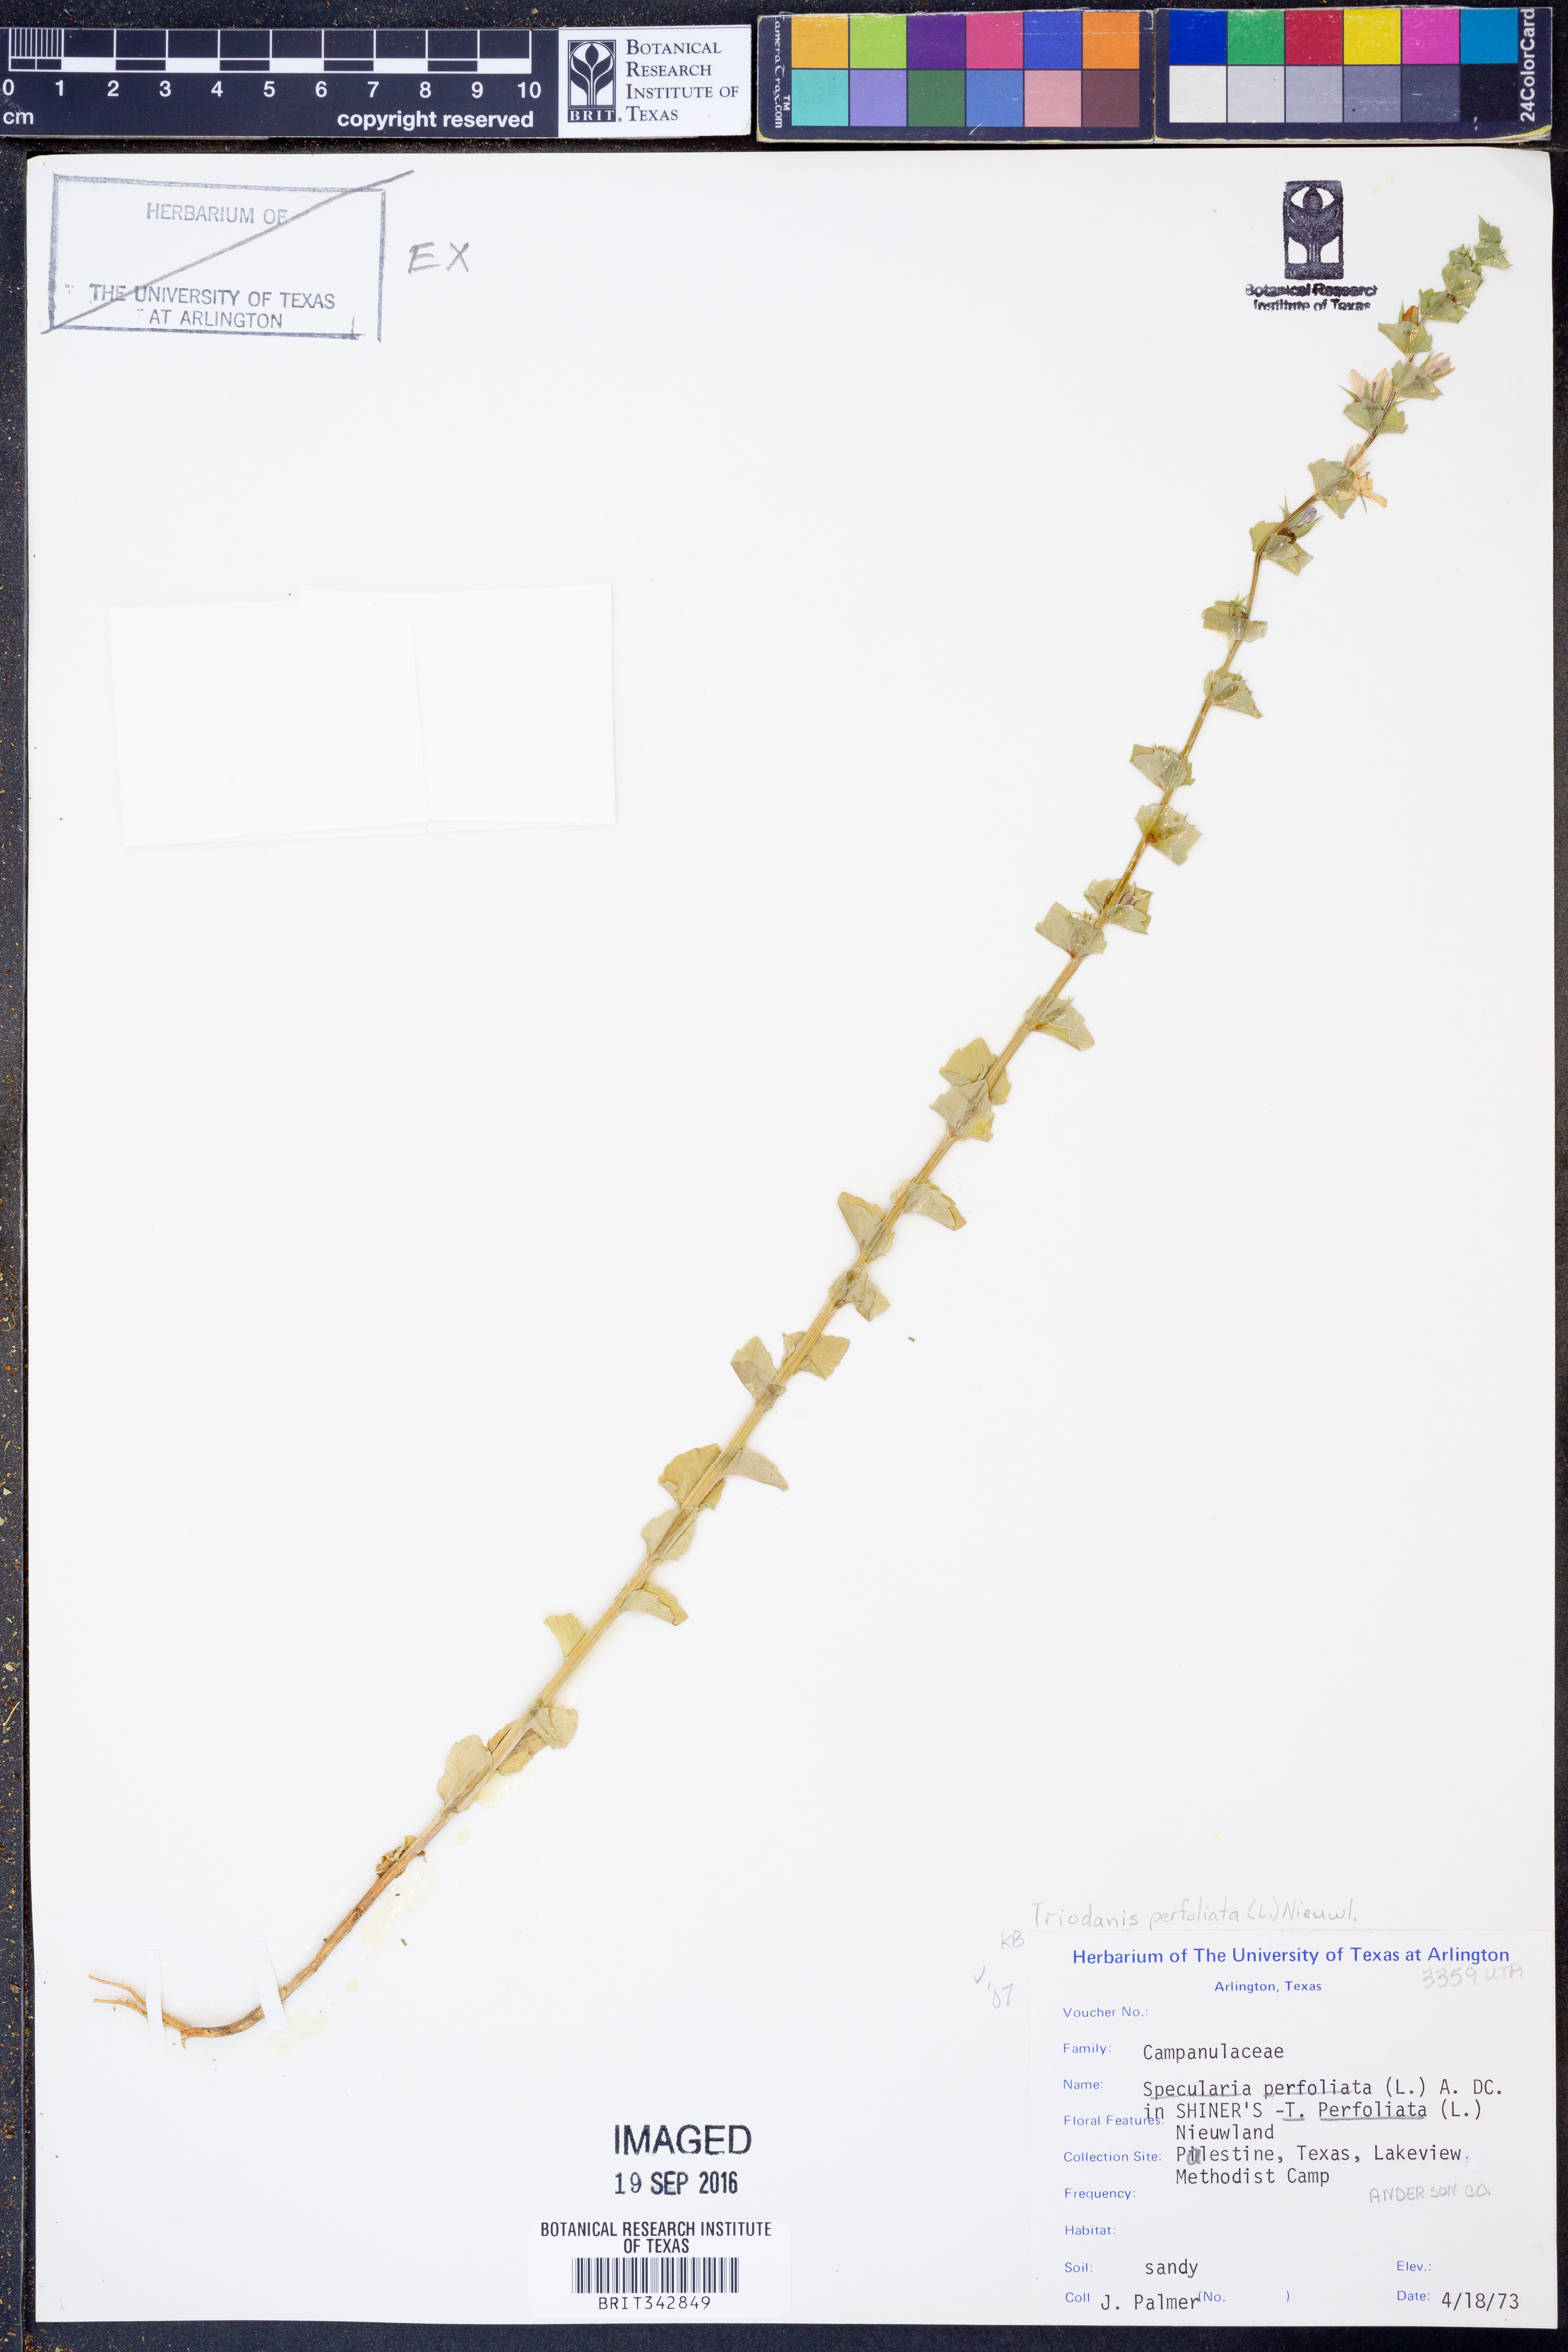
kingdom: Plantae
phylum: Tracheophyta
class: Magnoliopsida
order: Asterales
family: Campanulaceae
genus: Triodanis
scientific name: Triodanis perfoliata
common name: Clasping venus' looking-glass
